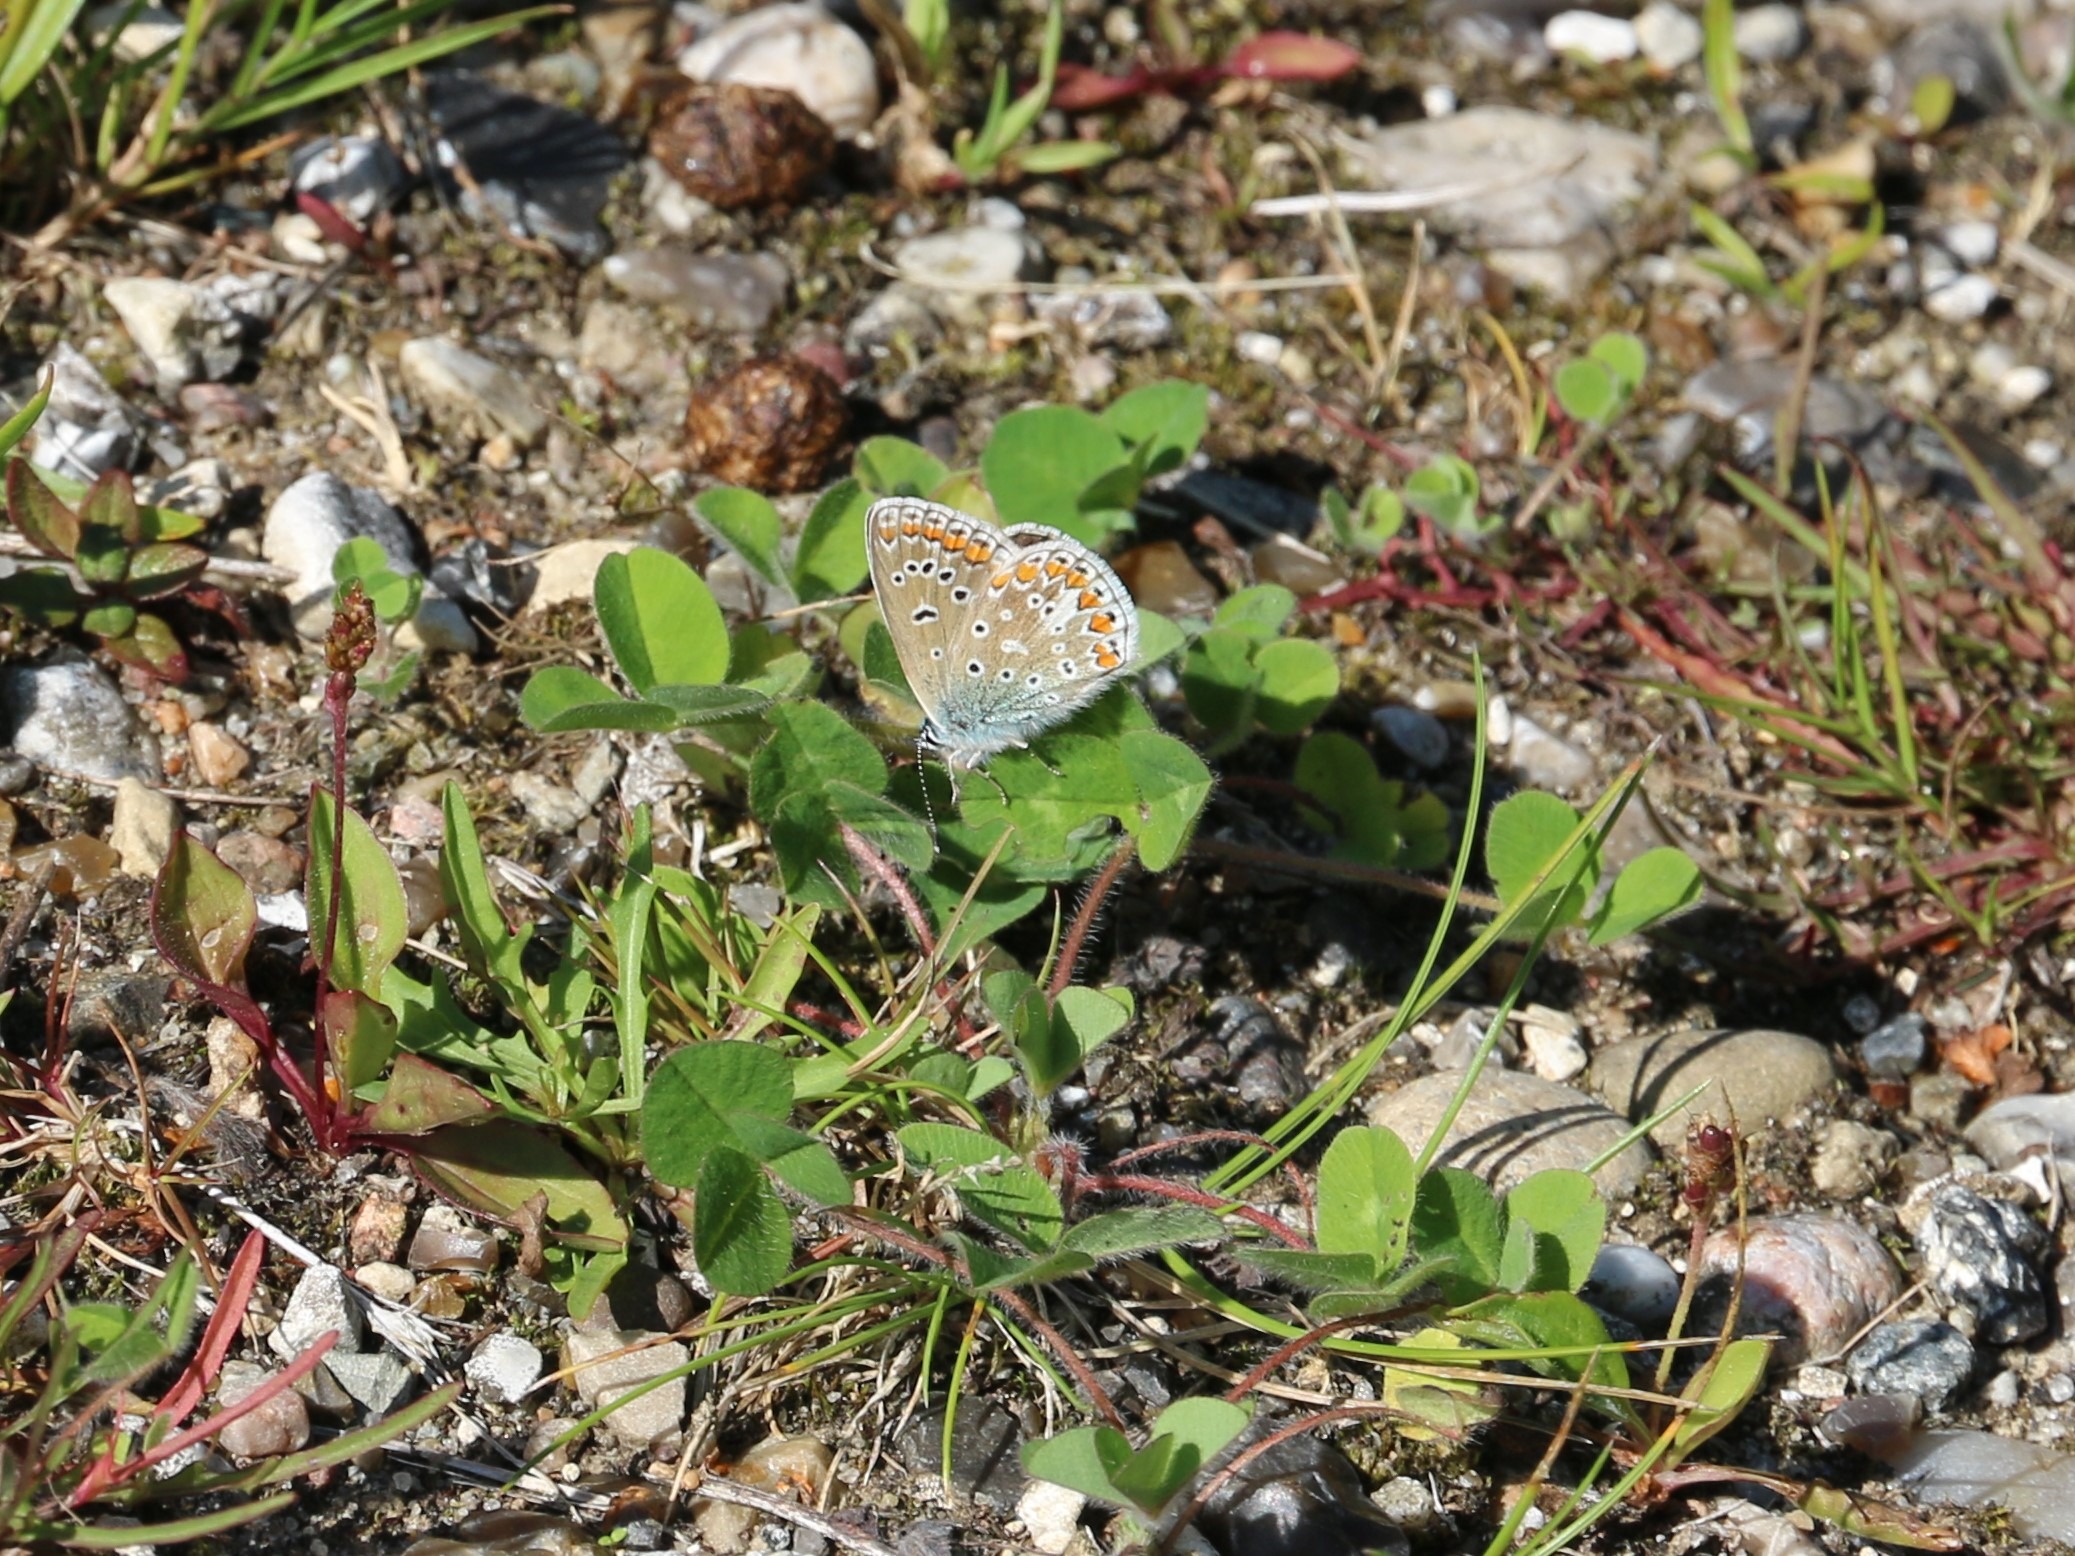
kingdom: Animalia
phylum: Arthropoda
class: Insecta
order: Lepidoptera
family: Lycaenidae
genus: Polyommatus
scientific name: Polyommatus icarus
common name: Almindelig blåfugl
